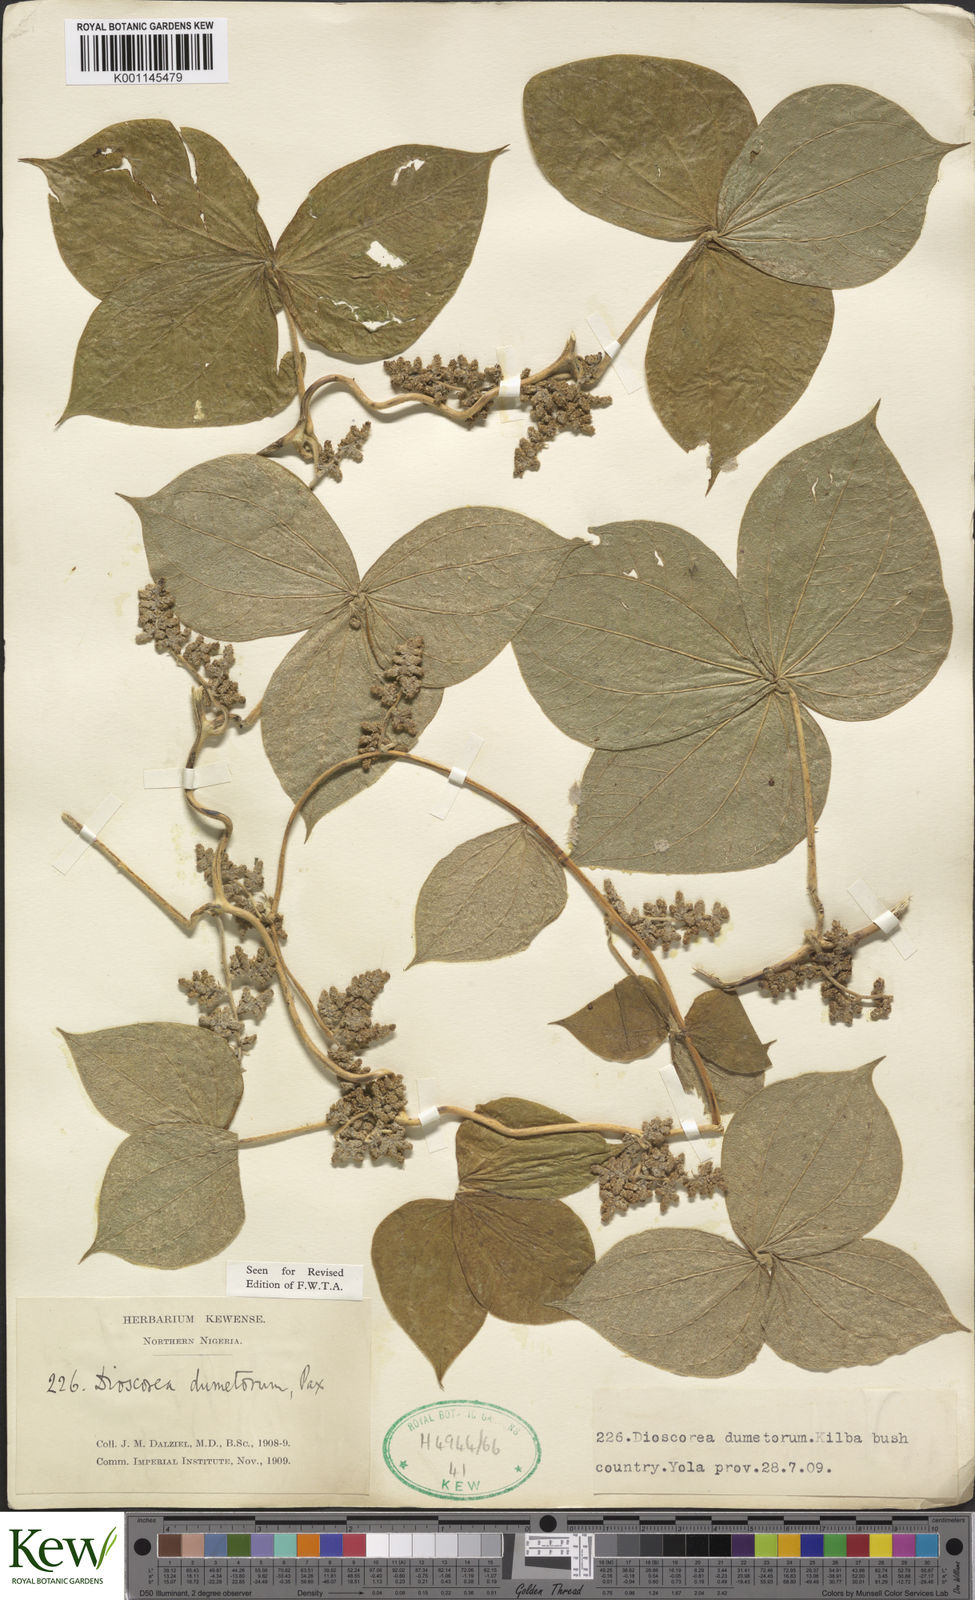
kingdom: Plantae
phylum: Tracheophyta
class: Liliopsida
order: Dioscoreales
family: Dioscoreaceae
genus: Dioscorea
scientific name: Dioscorea dumetorum
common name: African bitter yam
